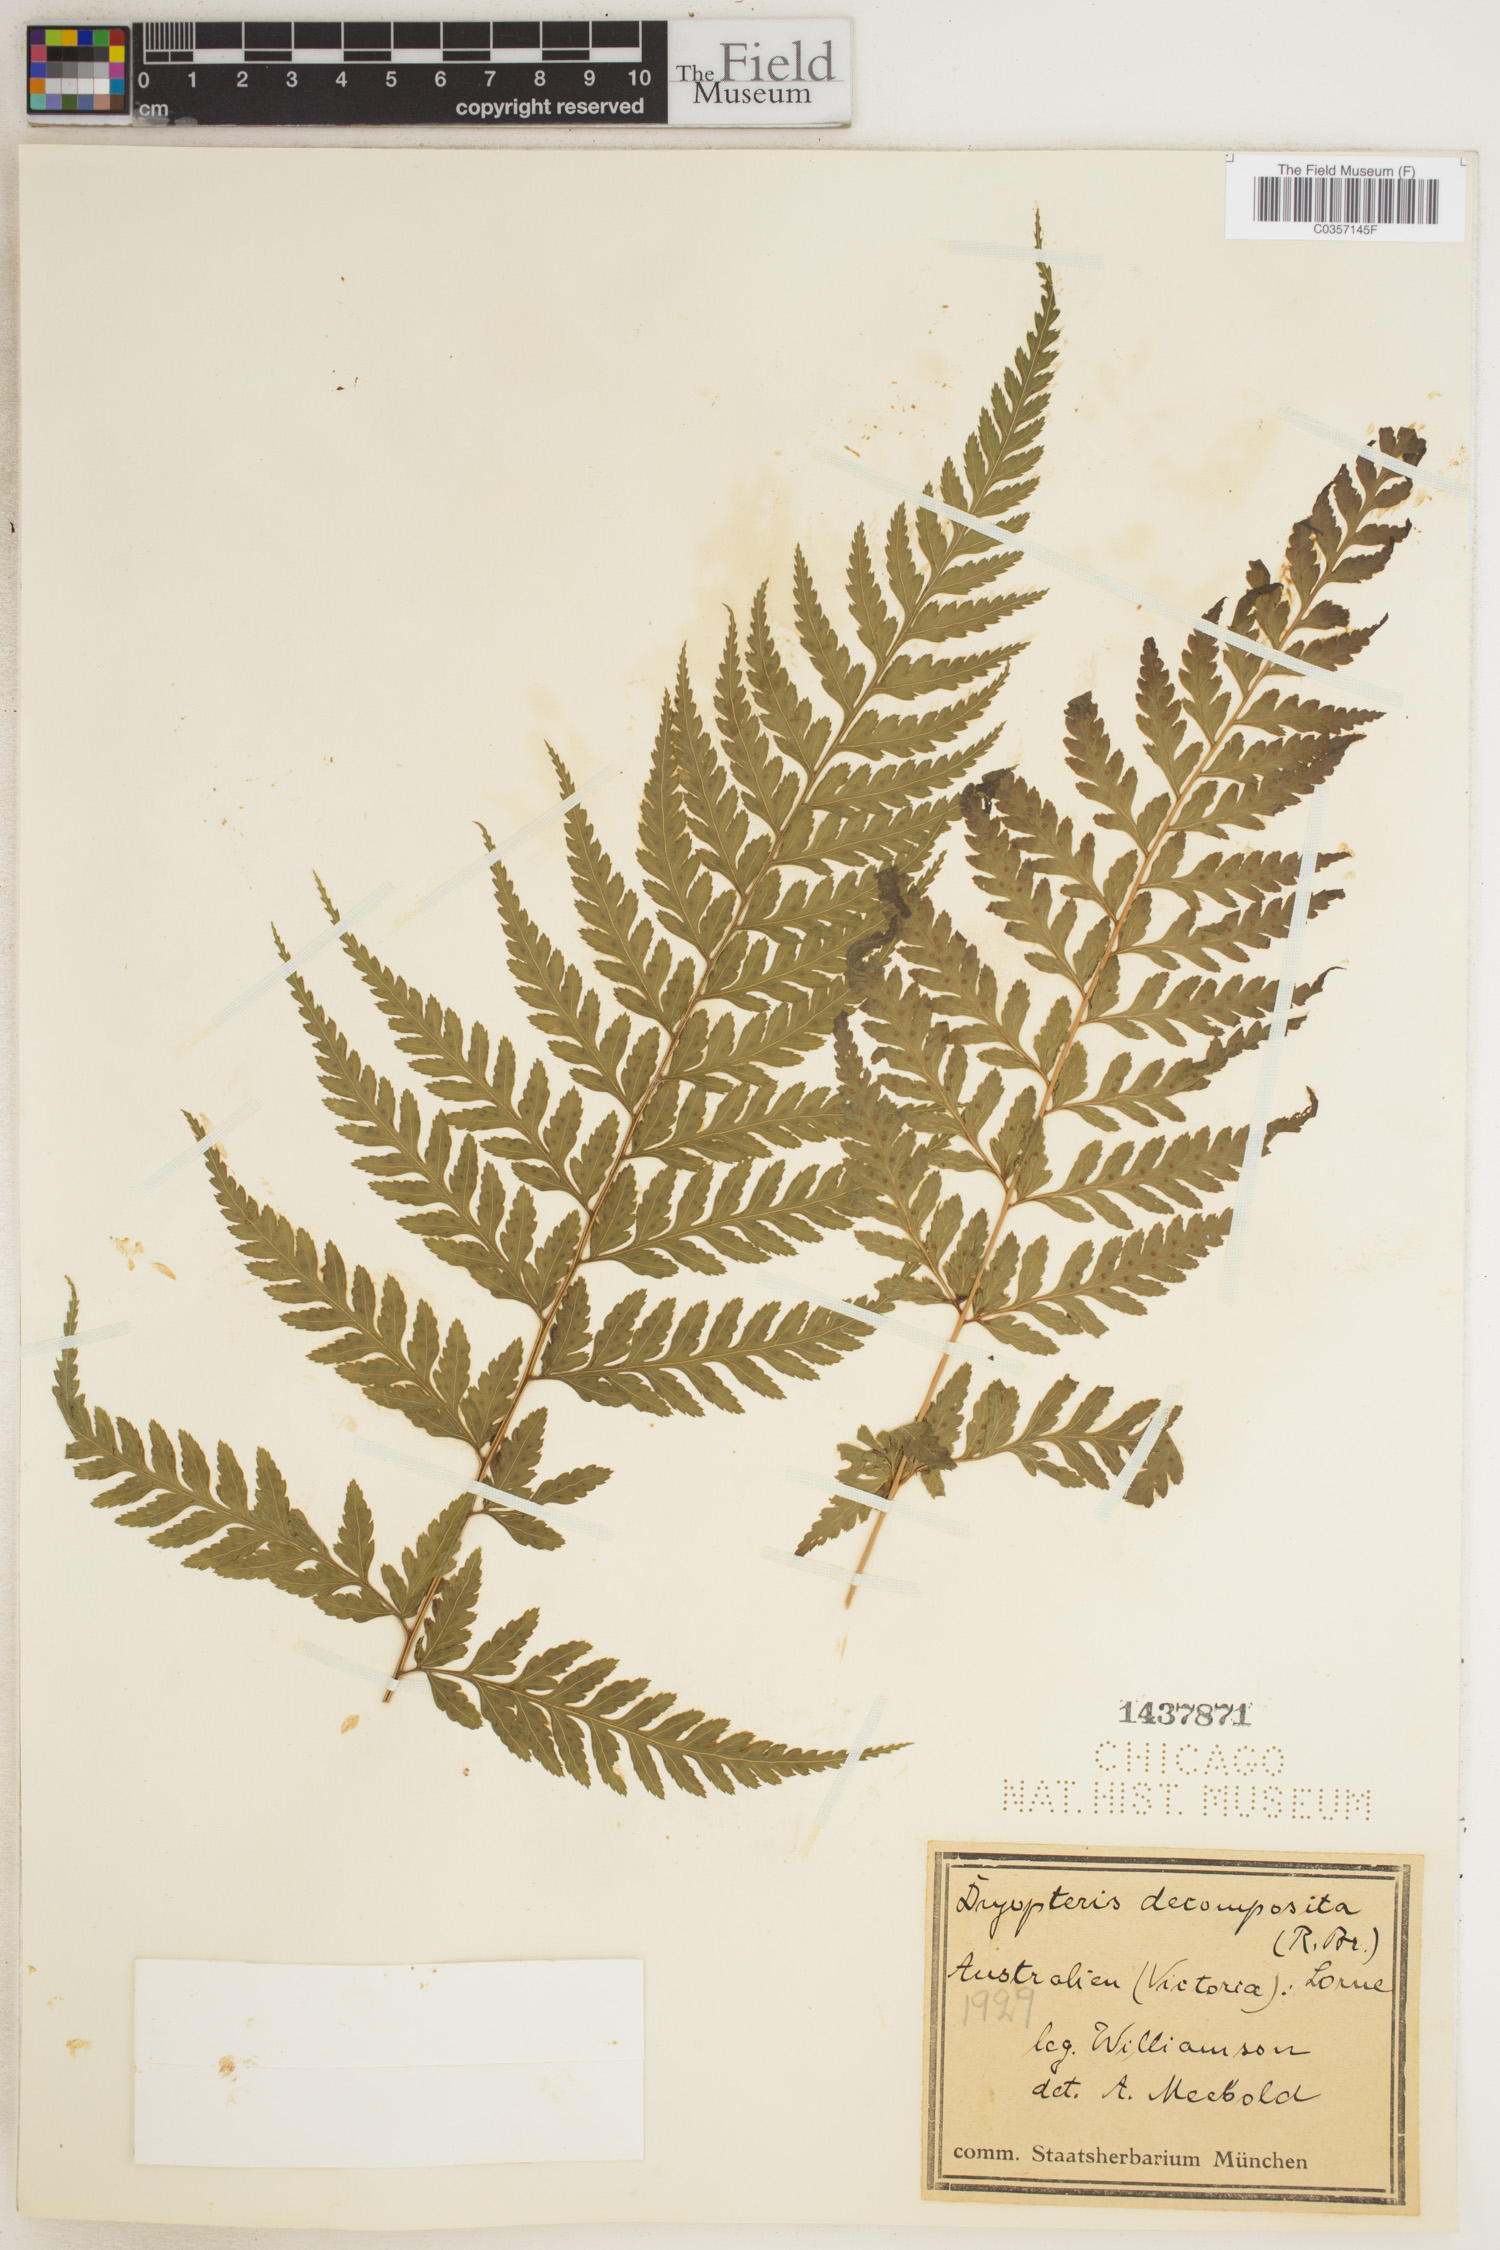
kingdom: Plantae
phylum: Tracheophyta
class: Polypodiopsida
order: Polypodiales
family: Dryopteridaceae
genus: Lastreopsis
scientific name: Lastreopsis decomposita
